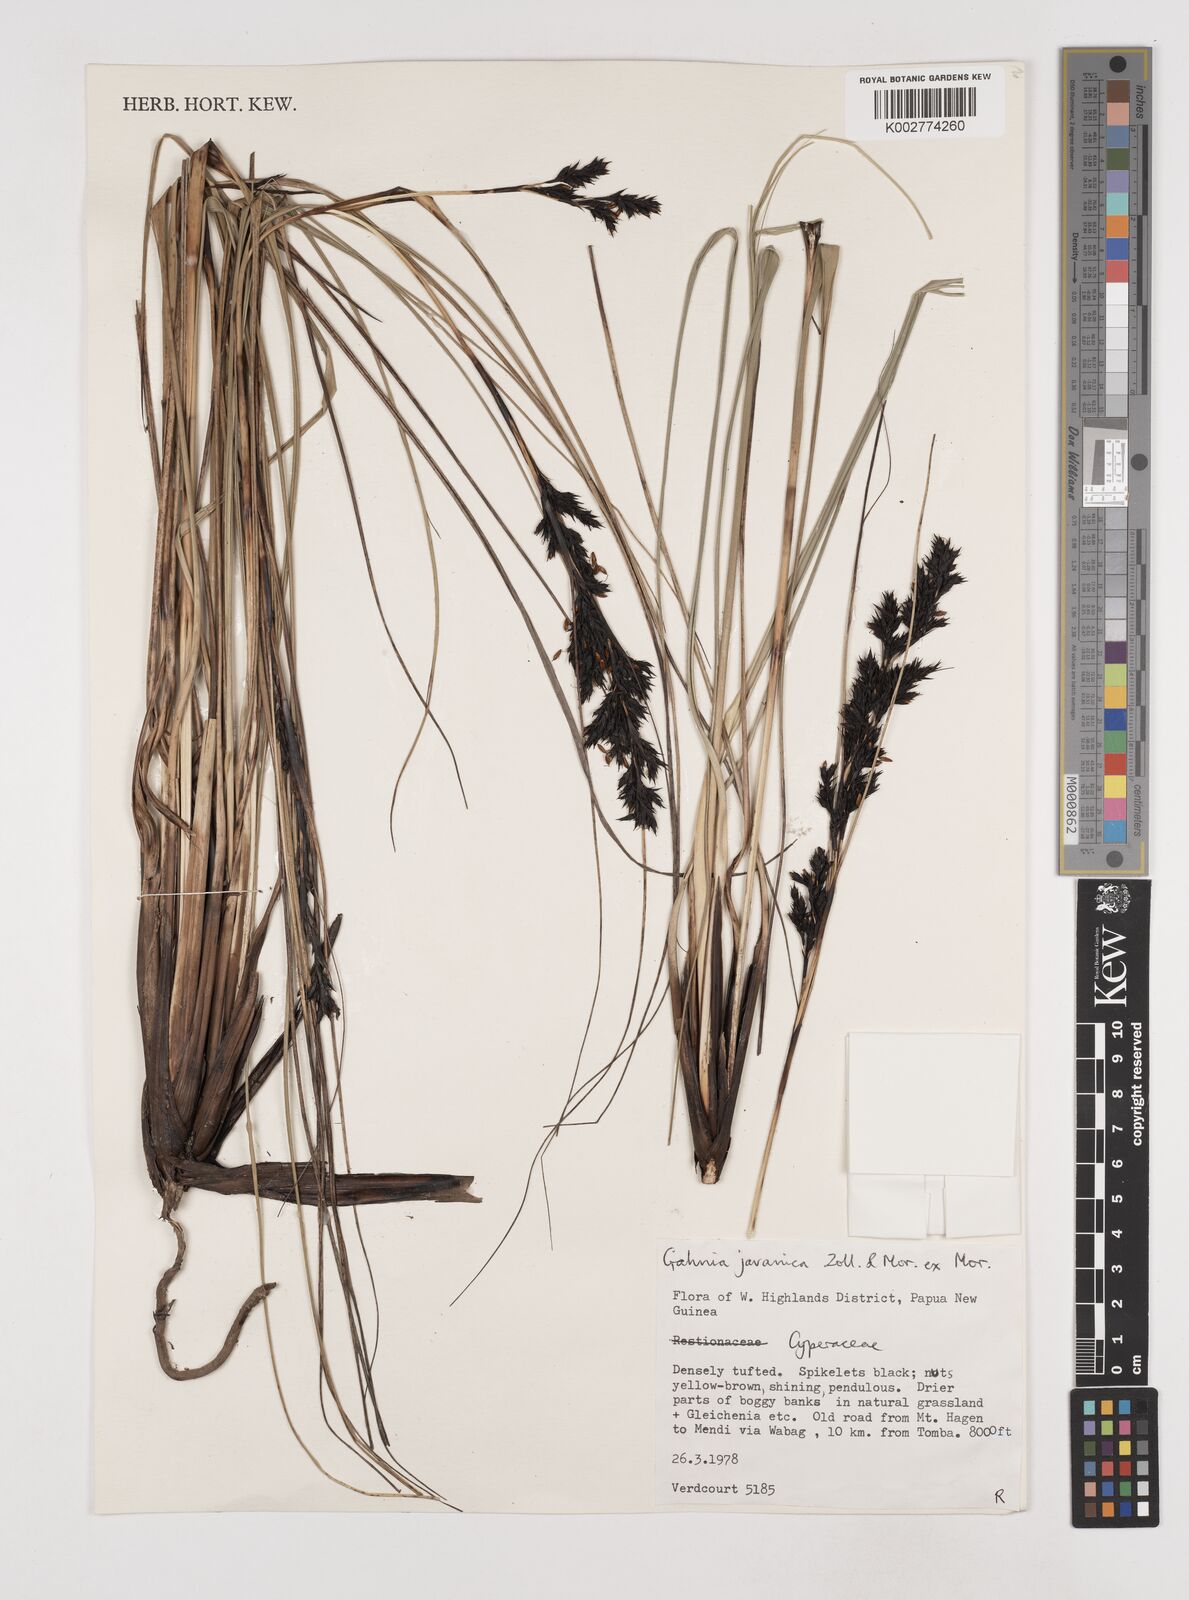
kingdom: Plantae
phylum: Tracheophyta
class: Liliopsida
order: Poales
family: Cyperaceae
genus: Gahnia
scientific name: Gahnia javanica
